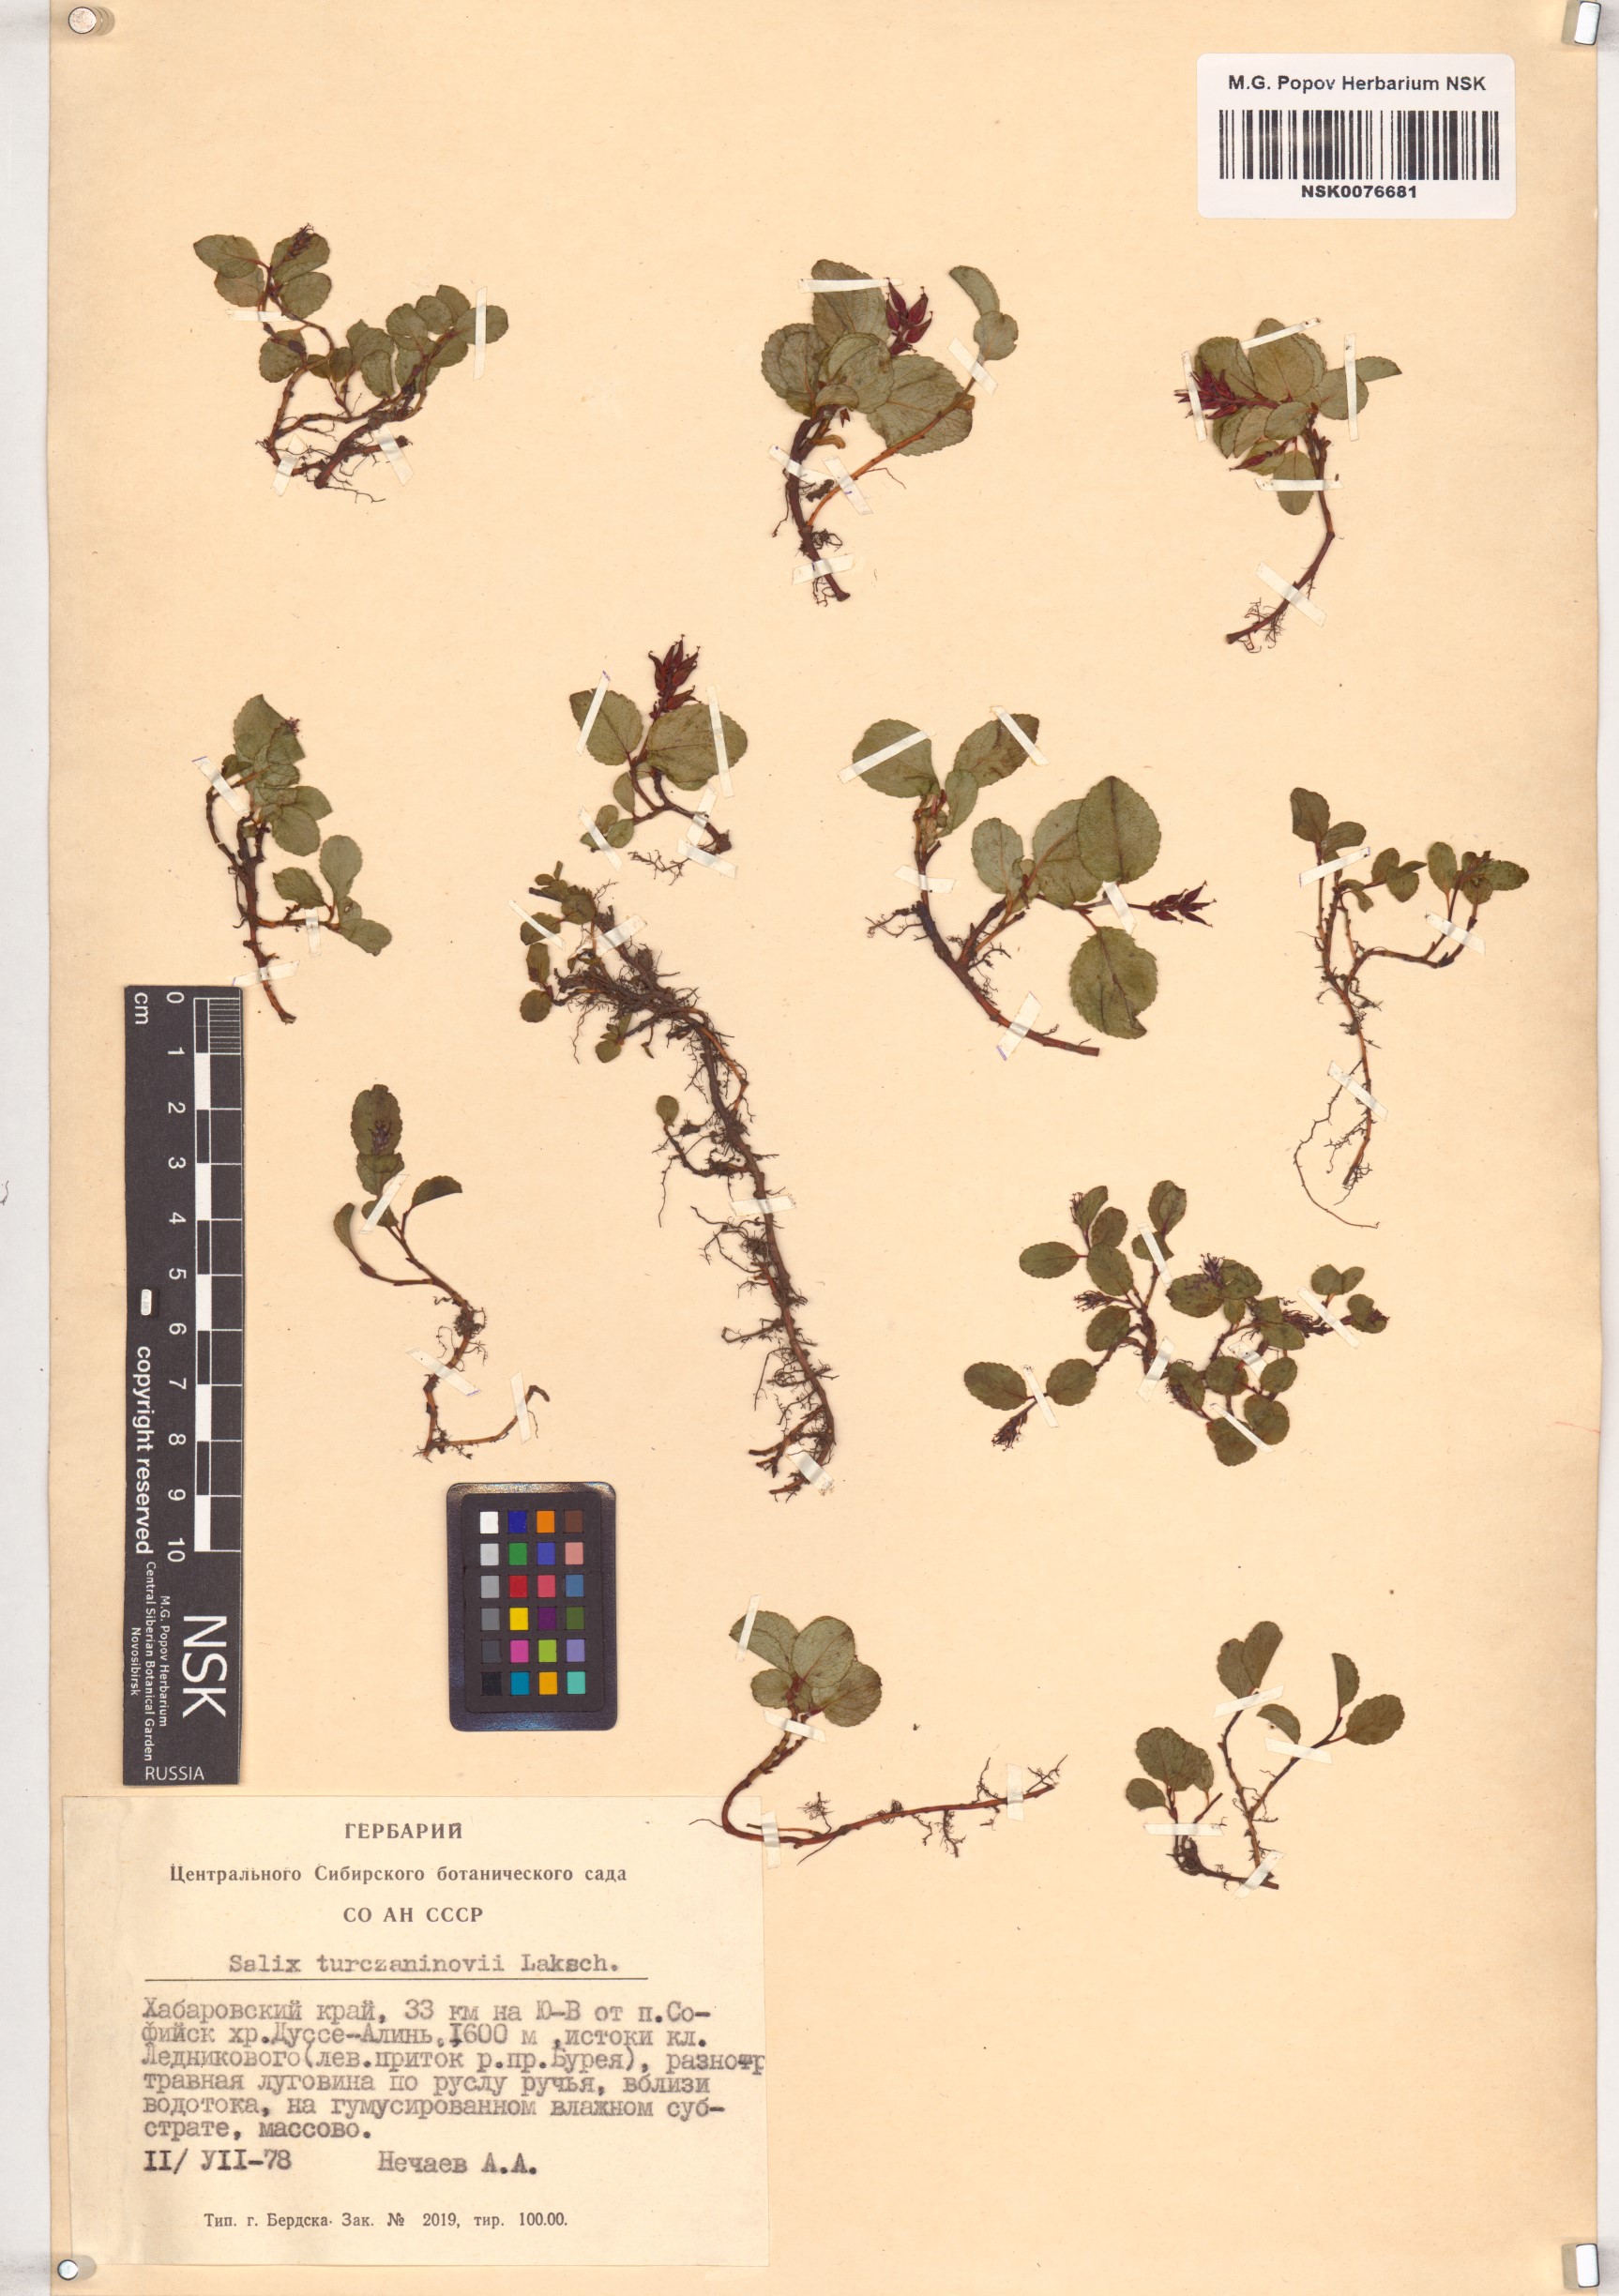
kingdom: Plantae
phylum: Tracheophyta
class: Magnoliopsida
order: Malpighiales
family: Salicaceae
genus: Salix
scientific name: Salix turczaninowii
